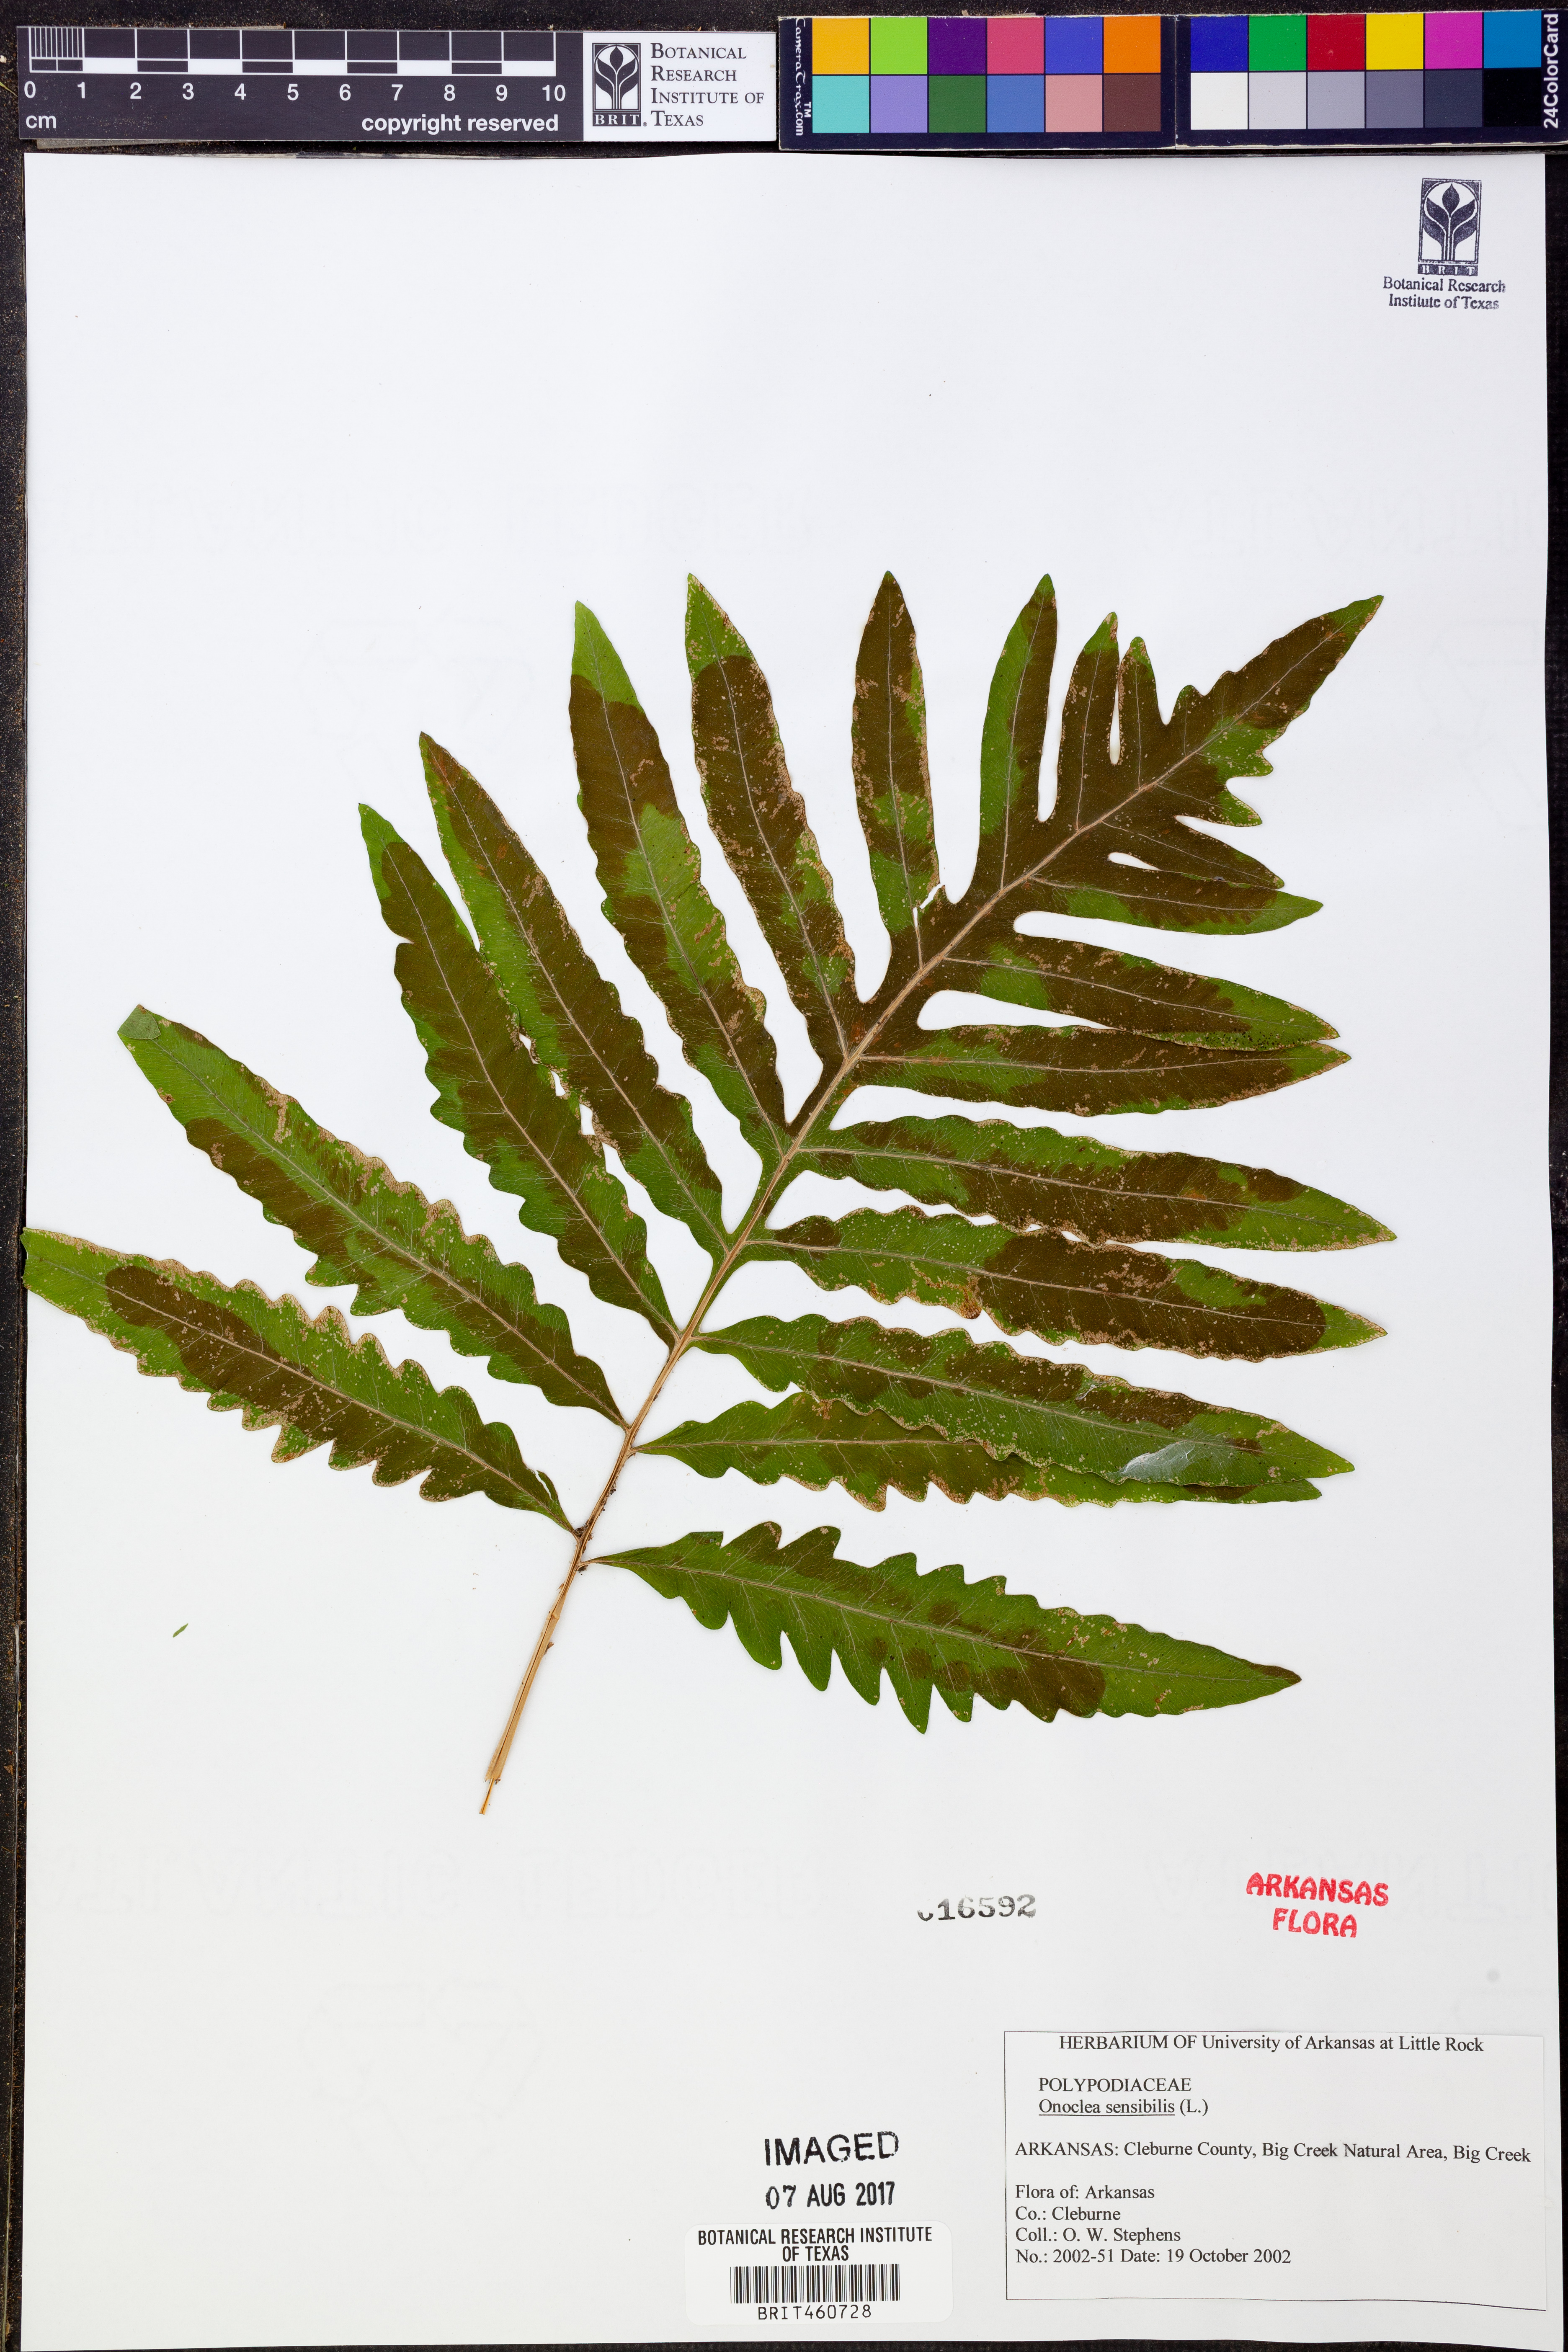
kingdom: Plantae
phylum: Tracheophyta
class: Polypodiopsida
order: Polypodiales
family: Onocleaceae
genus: Onoclea
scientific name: Onoclea sensibilis
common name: Sensitive fern
